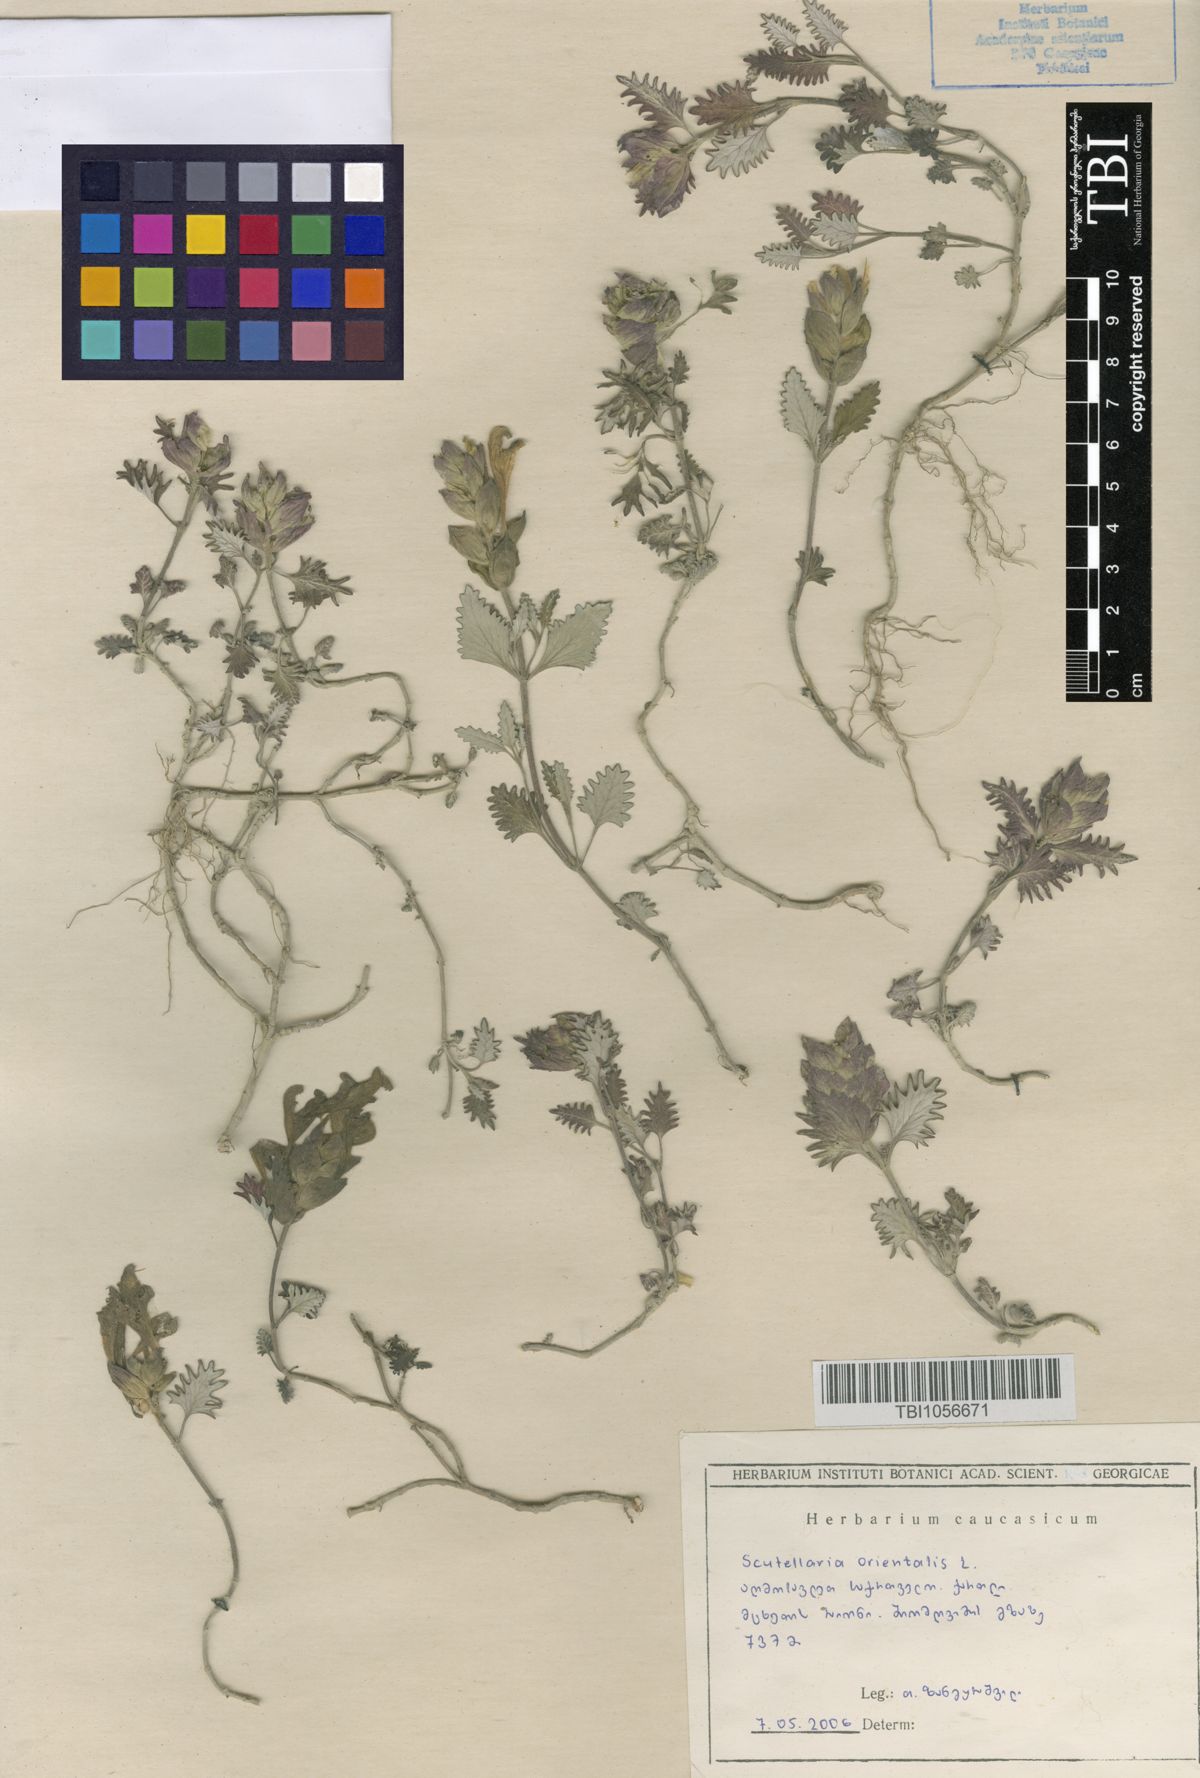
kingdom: Plantae
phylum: Tracheophyta
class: Magnoliopsida
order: Lamiales
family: Lamiaceae
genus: Scutellaria
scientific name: Scutellaria orientalis
